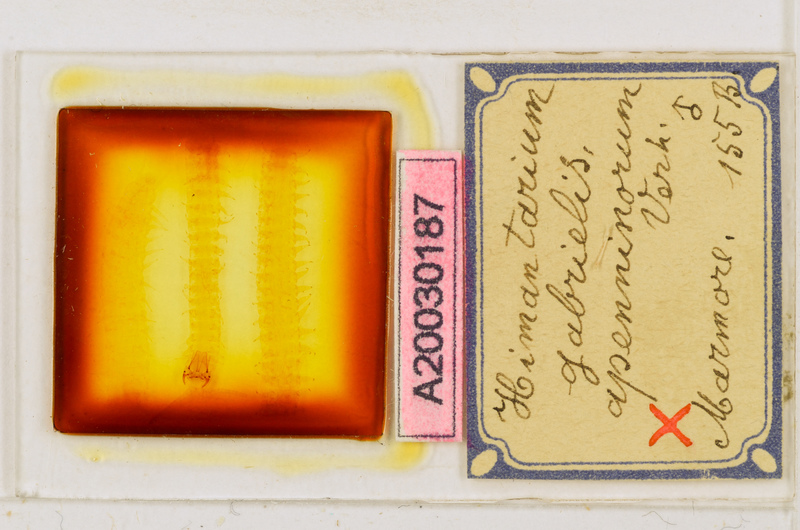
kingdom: Animalia
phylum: Arthropoda
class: Chilopoda
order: Geophilomorpha
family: Himantariidae
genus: Himantarium
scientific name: Himantarium gabrielis
